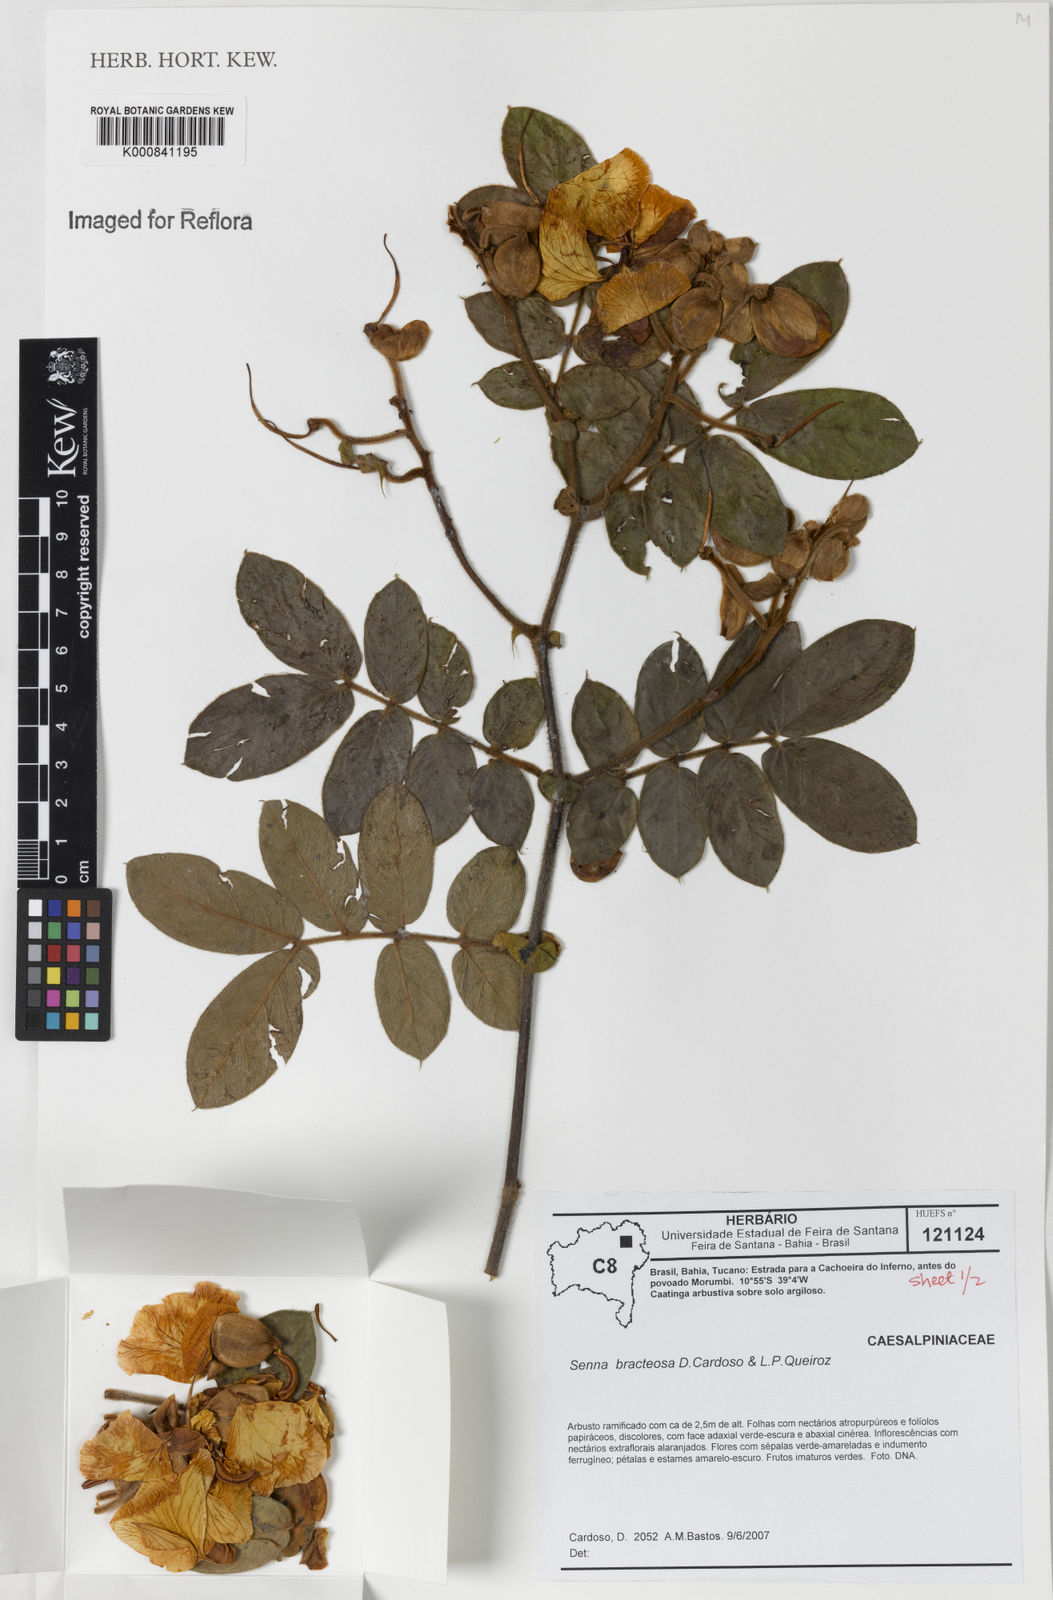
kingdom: Plantae
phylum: Tracheophyta
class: Magnoliopsida
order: Fabales
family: Fabaceae
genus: Senna
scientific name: Senna bracteosa
